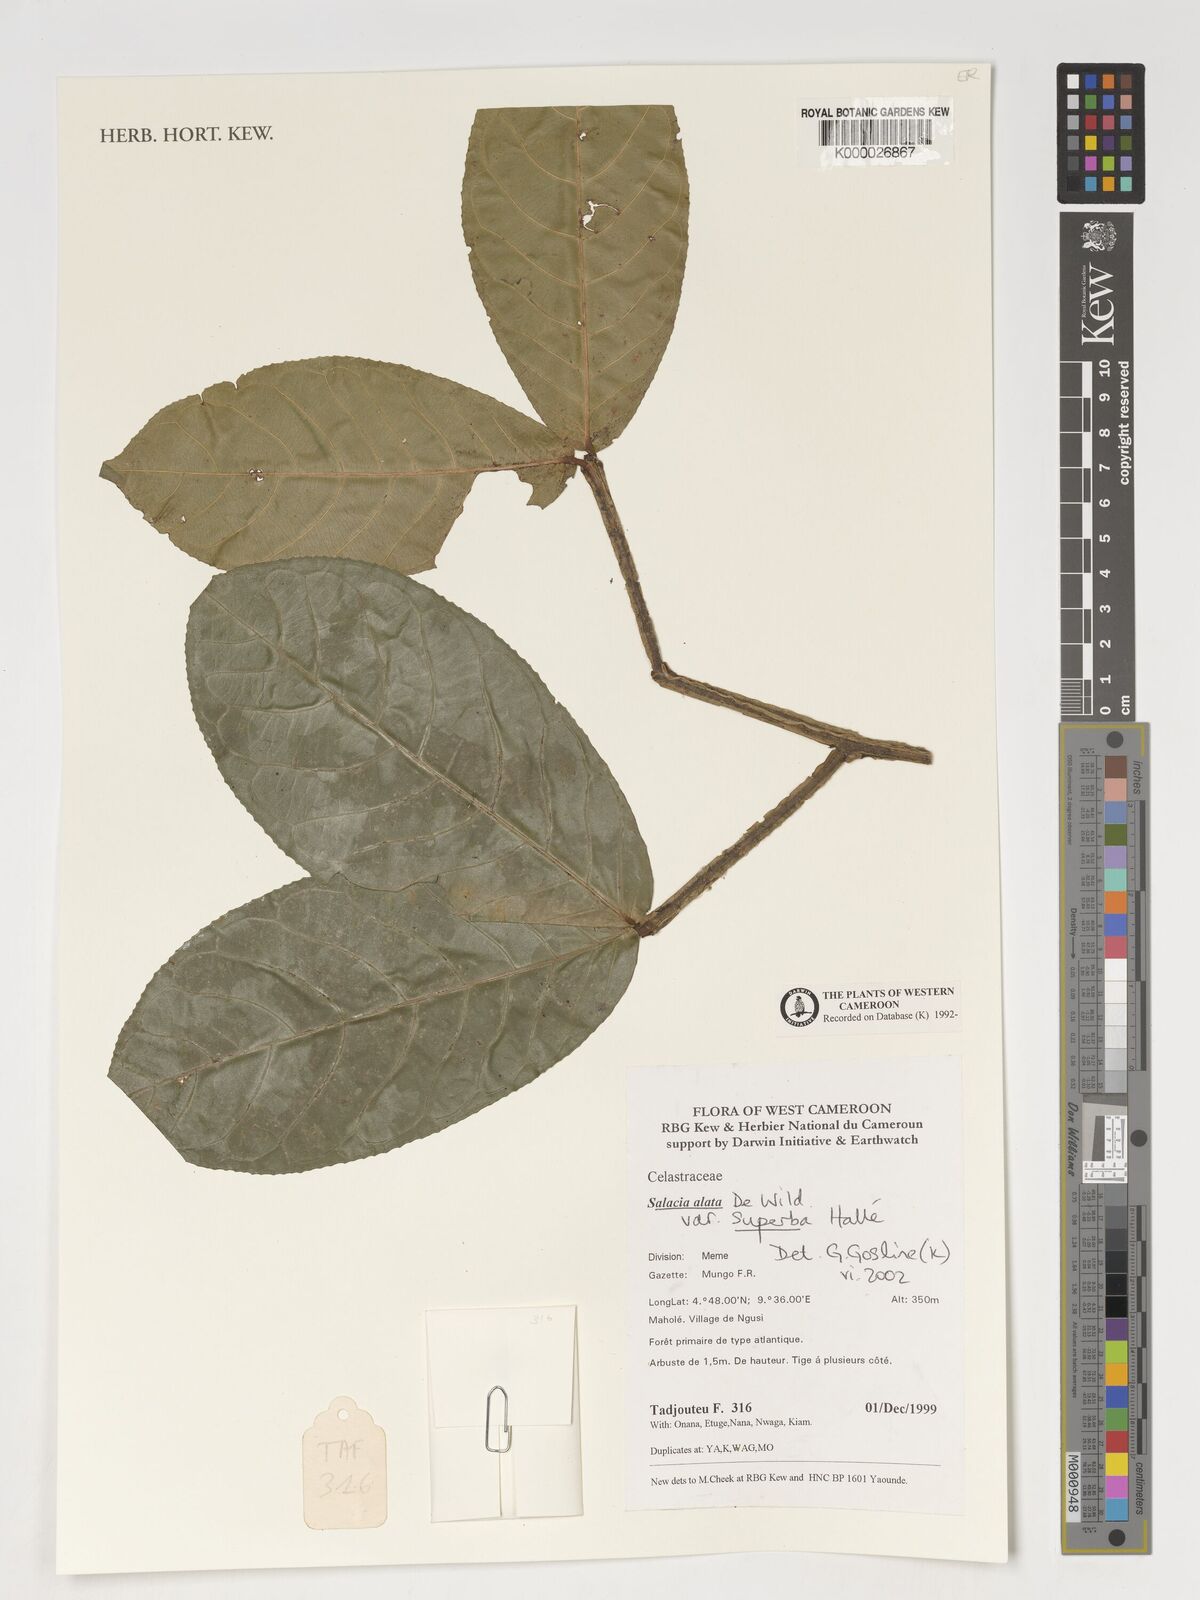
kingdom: Plantae
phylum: Tracheophyta
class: Magnoliopsida
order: Celastrales
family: Celastraceae
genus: Salacia
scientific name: Salacia alata
